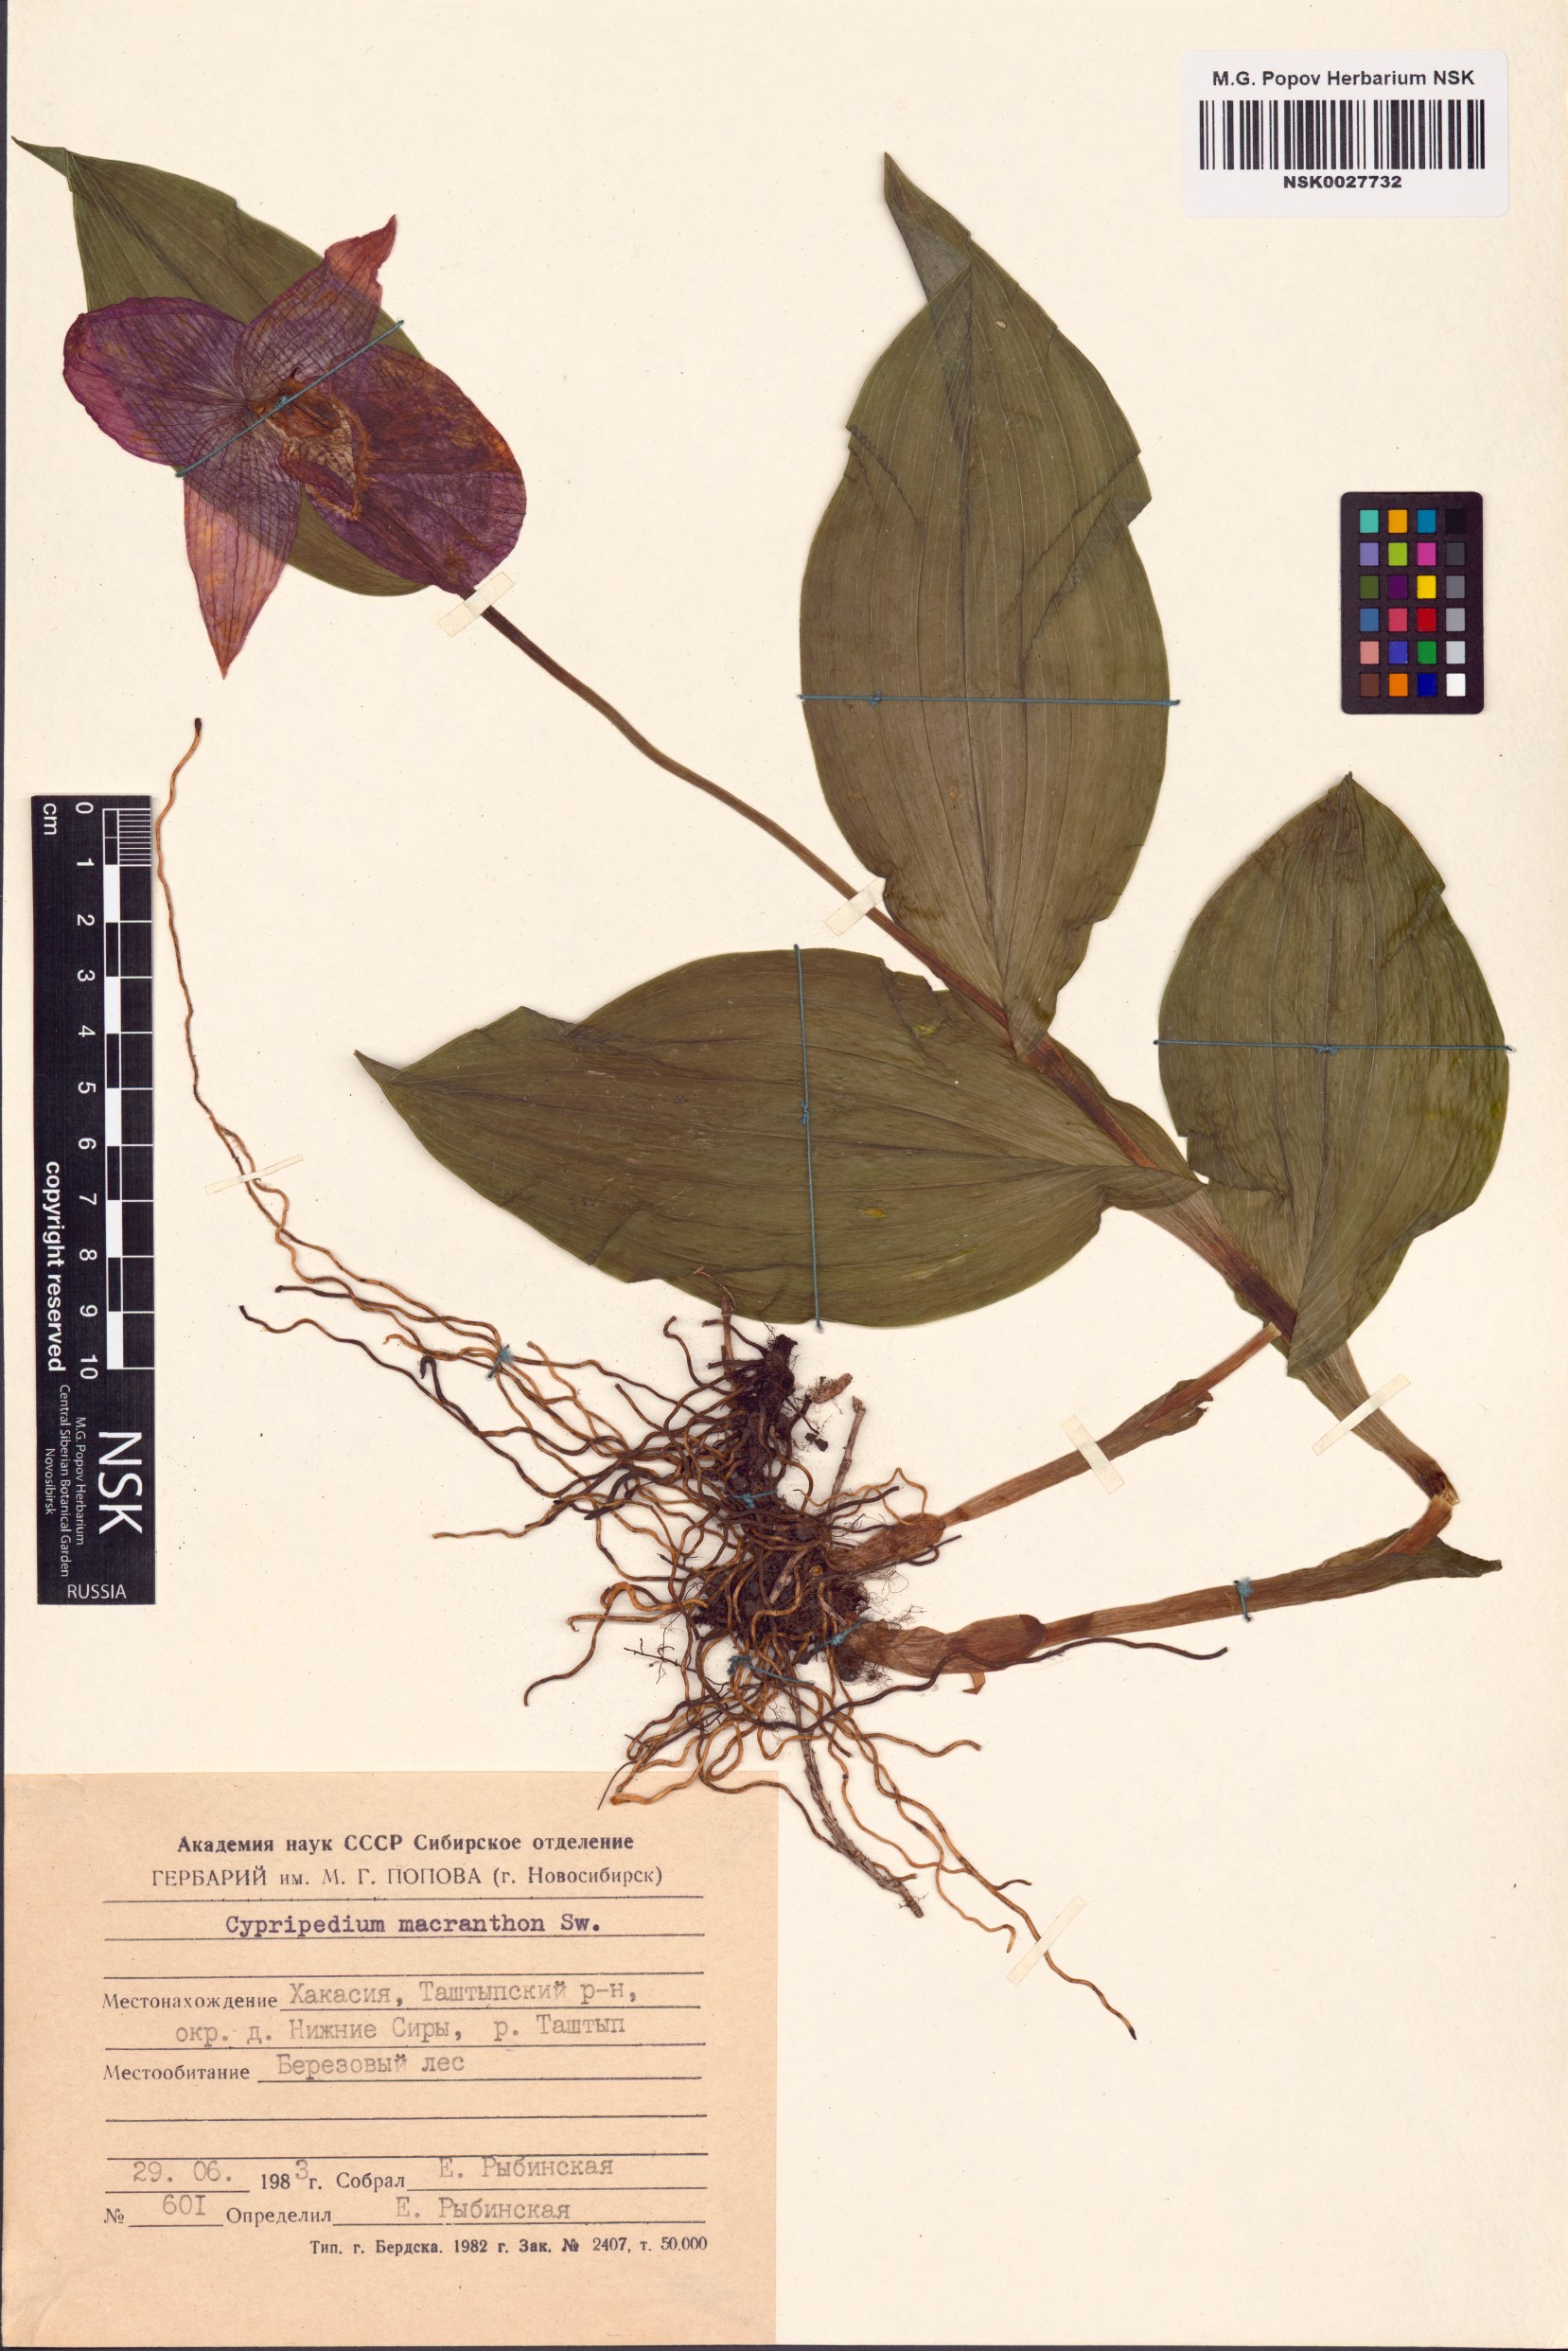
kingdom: Plantae
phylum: Tracheophyta
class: Liliopsida
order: Asparagales
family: Orchidaceae
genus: Cypripedium
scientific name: Cypripedium macranthos
